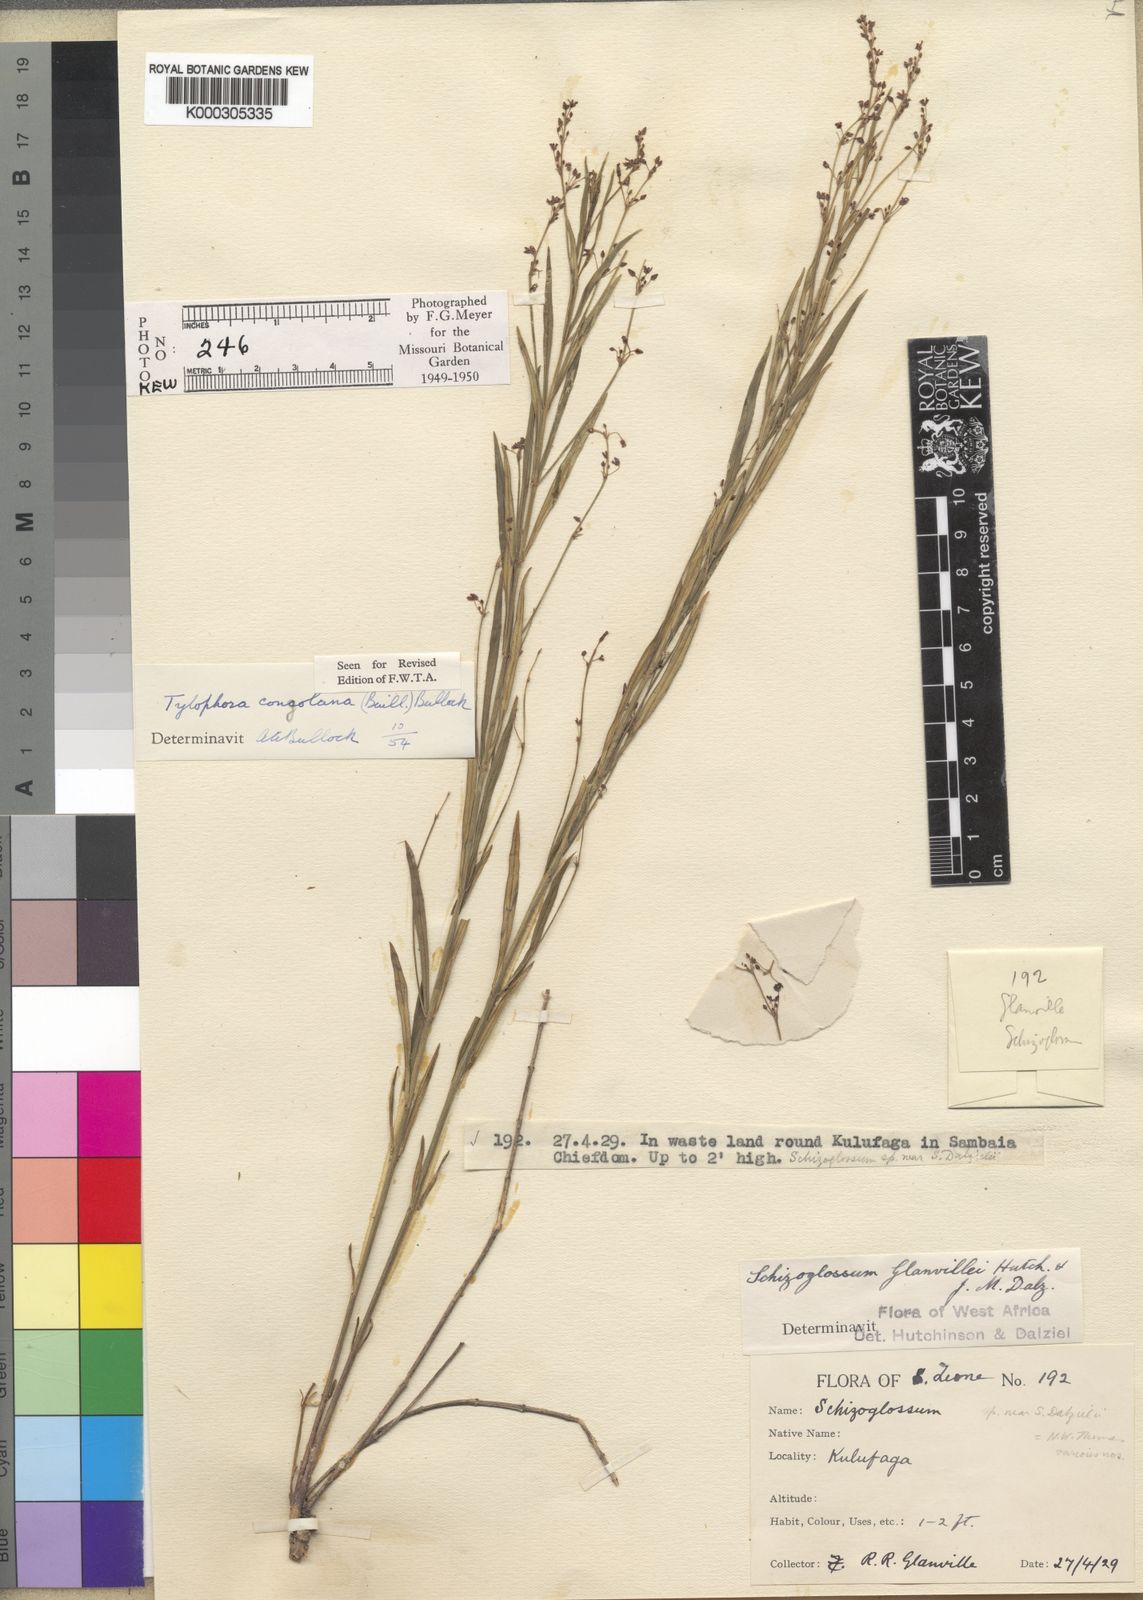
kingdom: Plantae
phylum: Tracheophyta
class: Magnoliopsida
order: Gentianales
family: Apocynaceae
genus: Vincetoxicum
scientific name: Vincetoxicum congolanum
